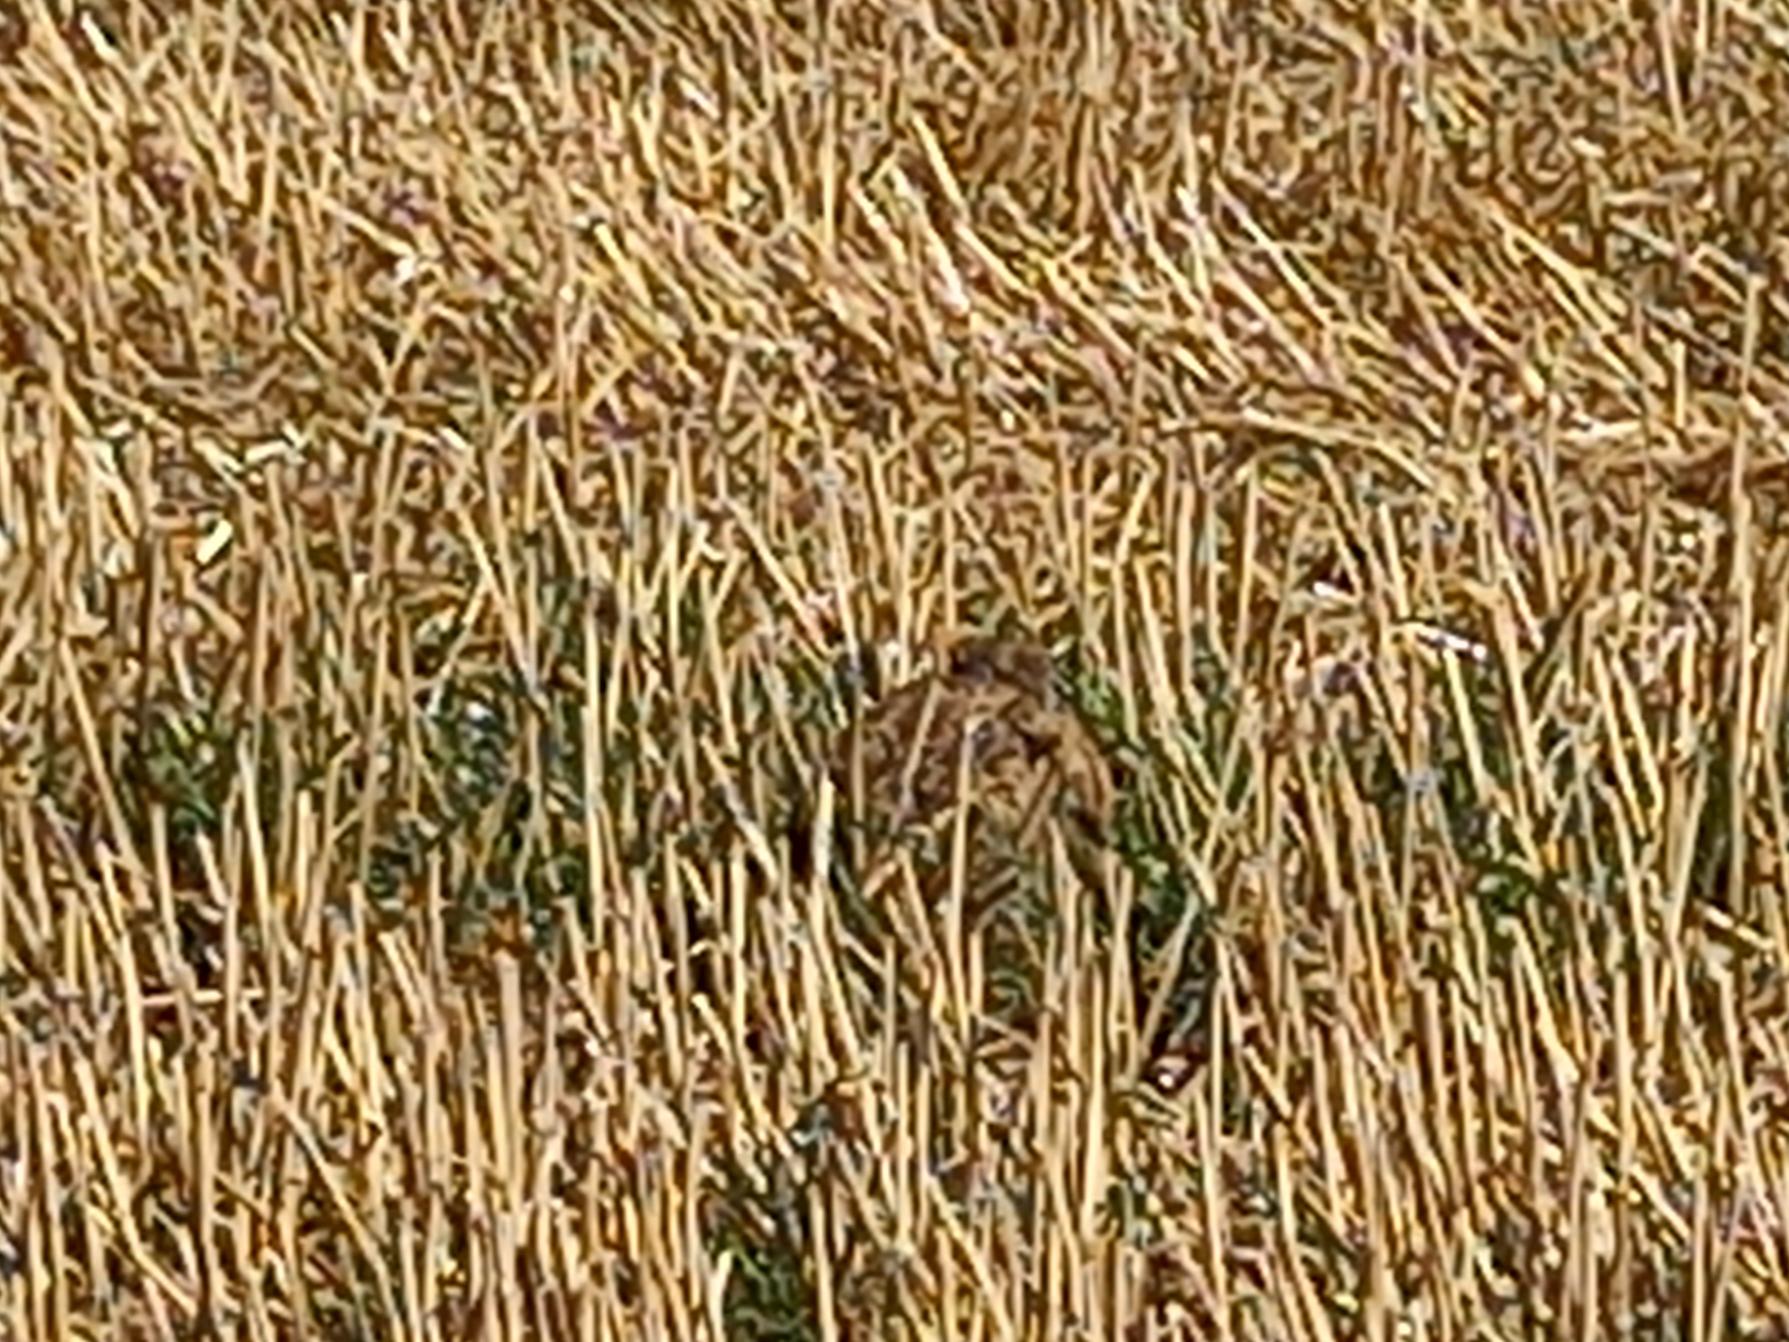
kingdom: Animalia
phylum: Chordata
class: Mammalia
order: Lagomorpha
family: Leporidae
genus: Lepus
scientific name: Lepus europaeus
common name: Hare
